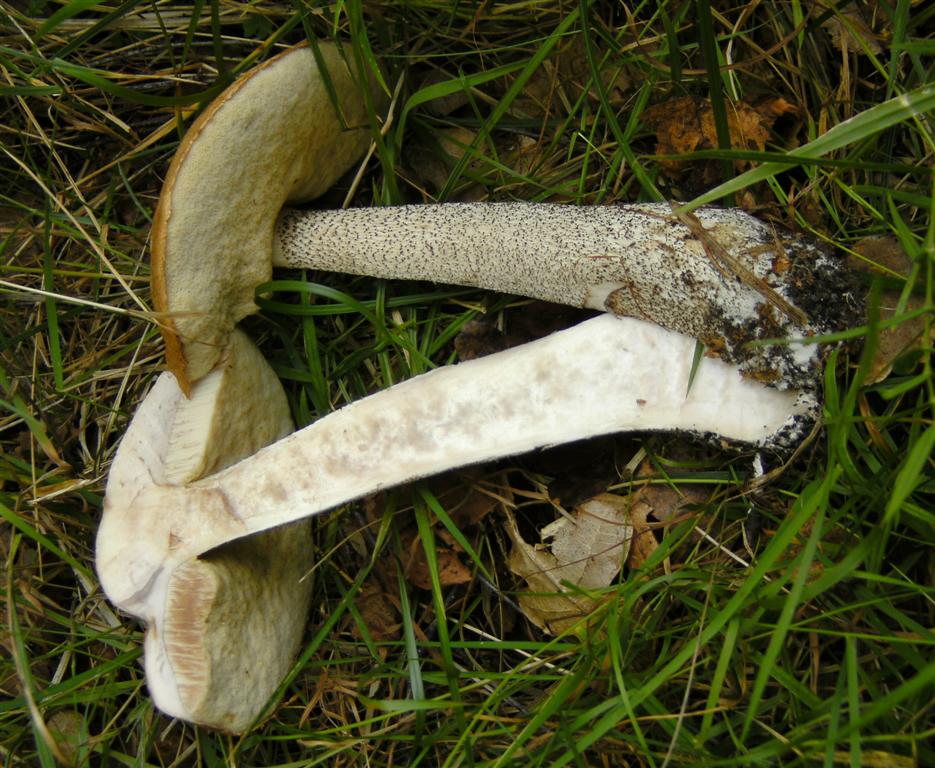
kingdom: Fungi
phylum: Basidiomycota
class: Agaricomycetes
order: Boletales
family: Boletaceae
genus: Leccinum
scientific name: Leccinum versipelle
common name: orange skælrørhat
